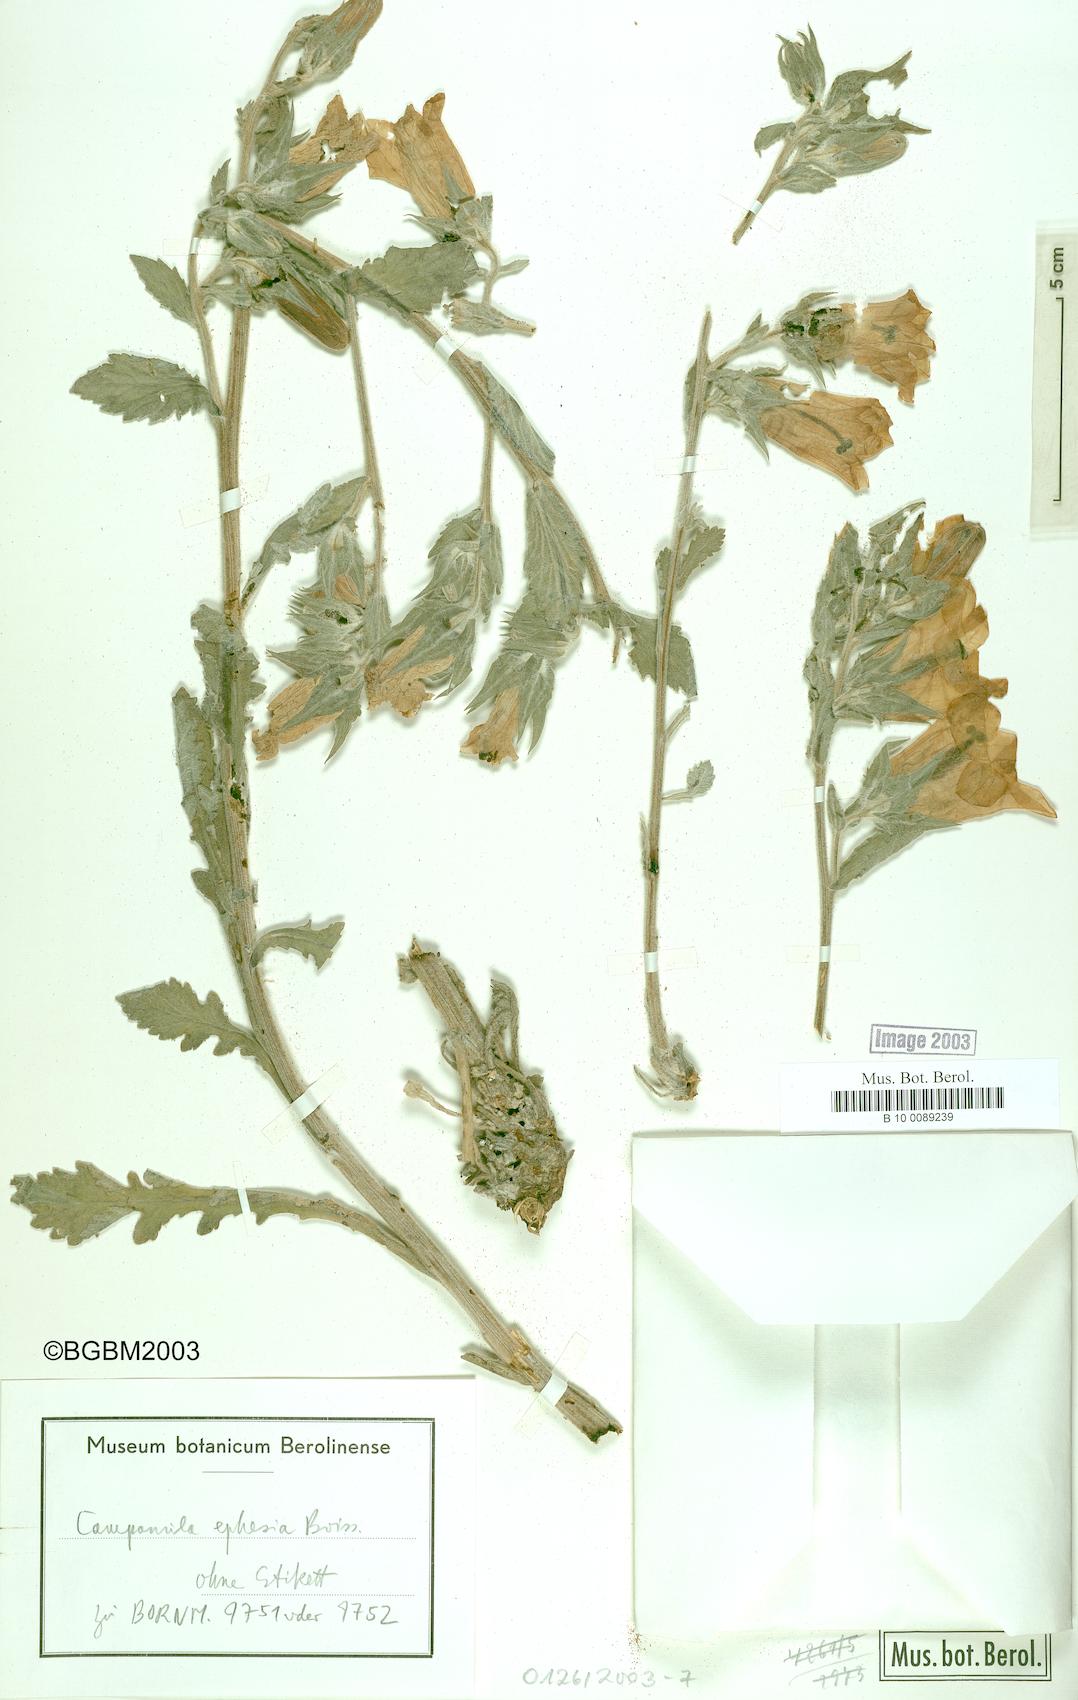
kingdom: Plantae
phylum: Tracheophyta
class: Magnoliopsida
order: Asterales
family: Campanulaceae
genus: Campanula
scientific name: Campanula tomentosa
